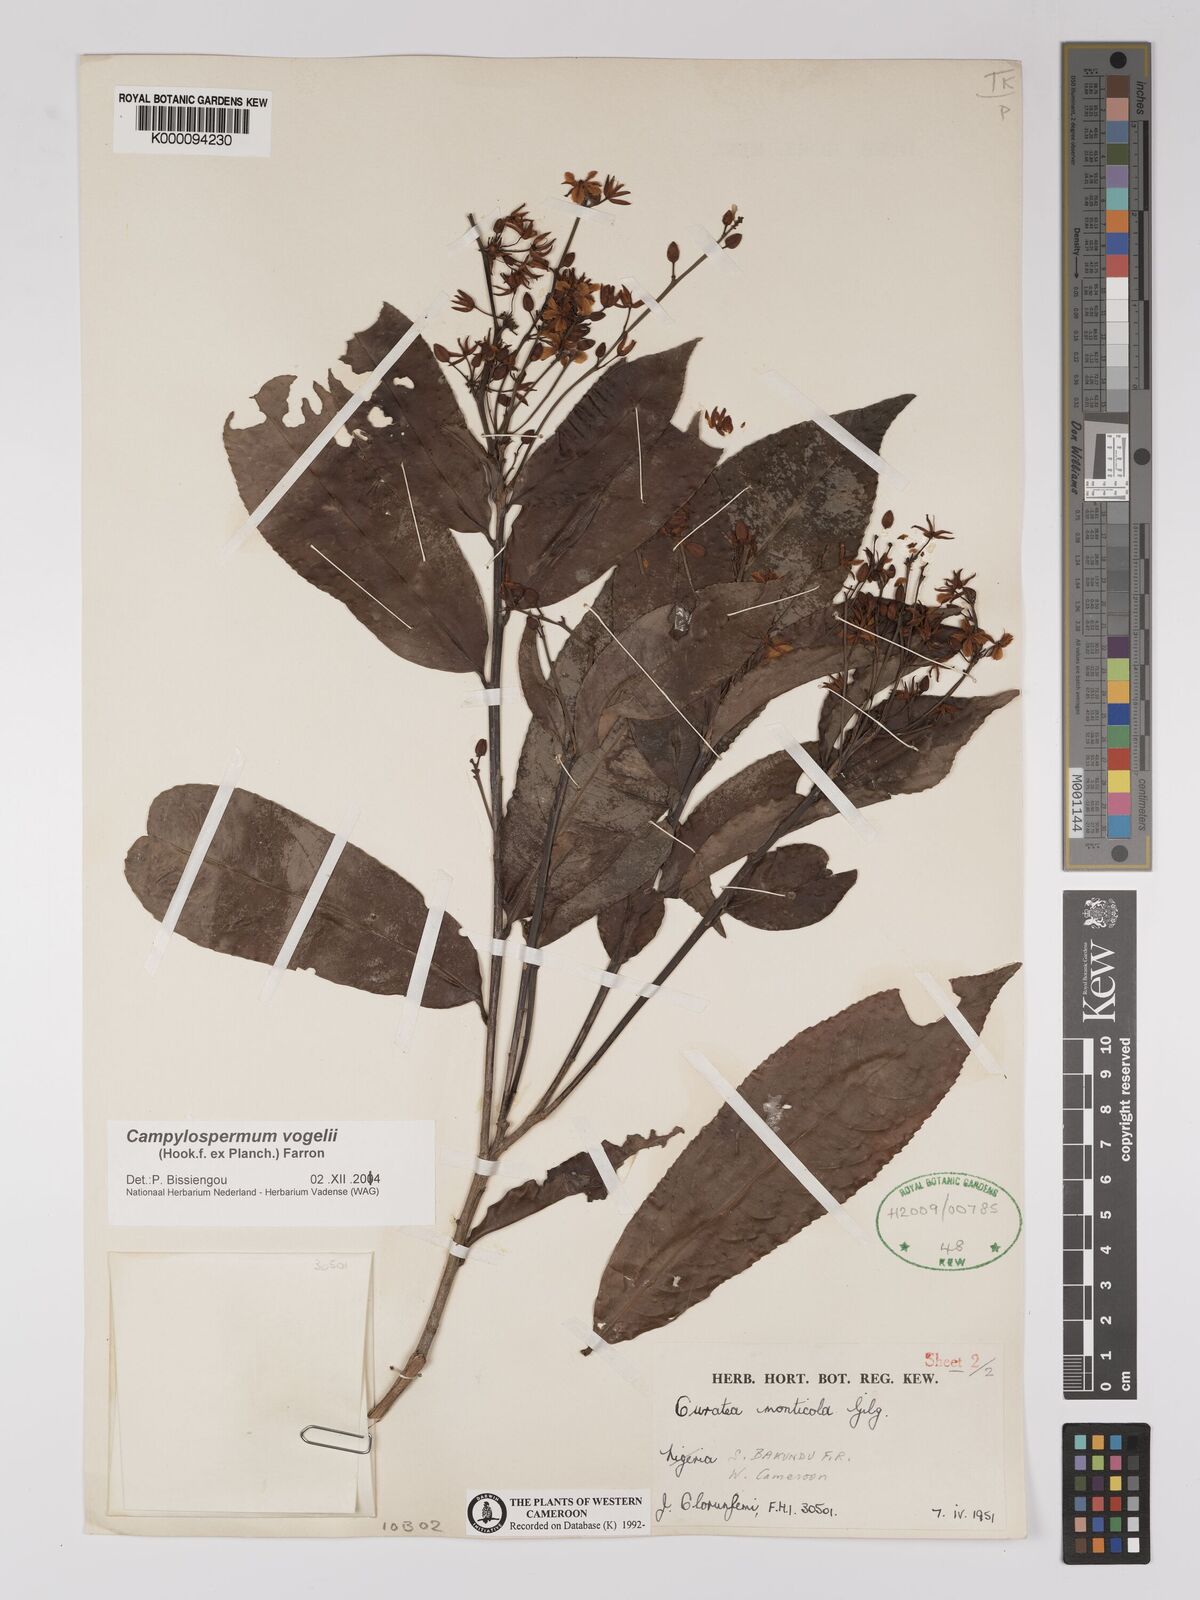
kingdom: Plantae
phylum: Tracheophyta
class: Magnoliopsida
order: Malpighiales
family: Ochnaceae
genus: Campylospermum
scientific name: Campylospermum vogelii
